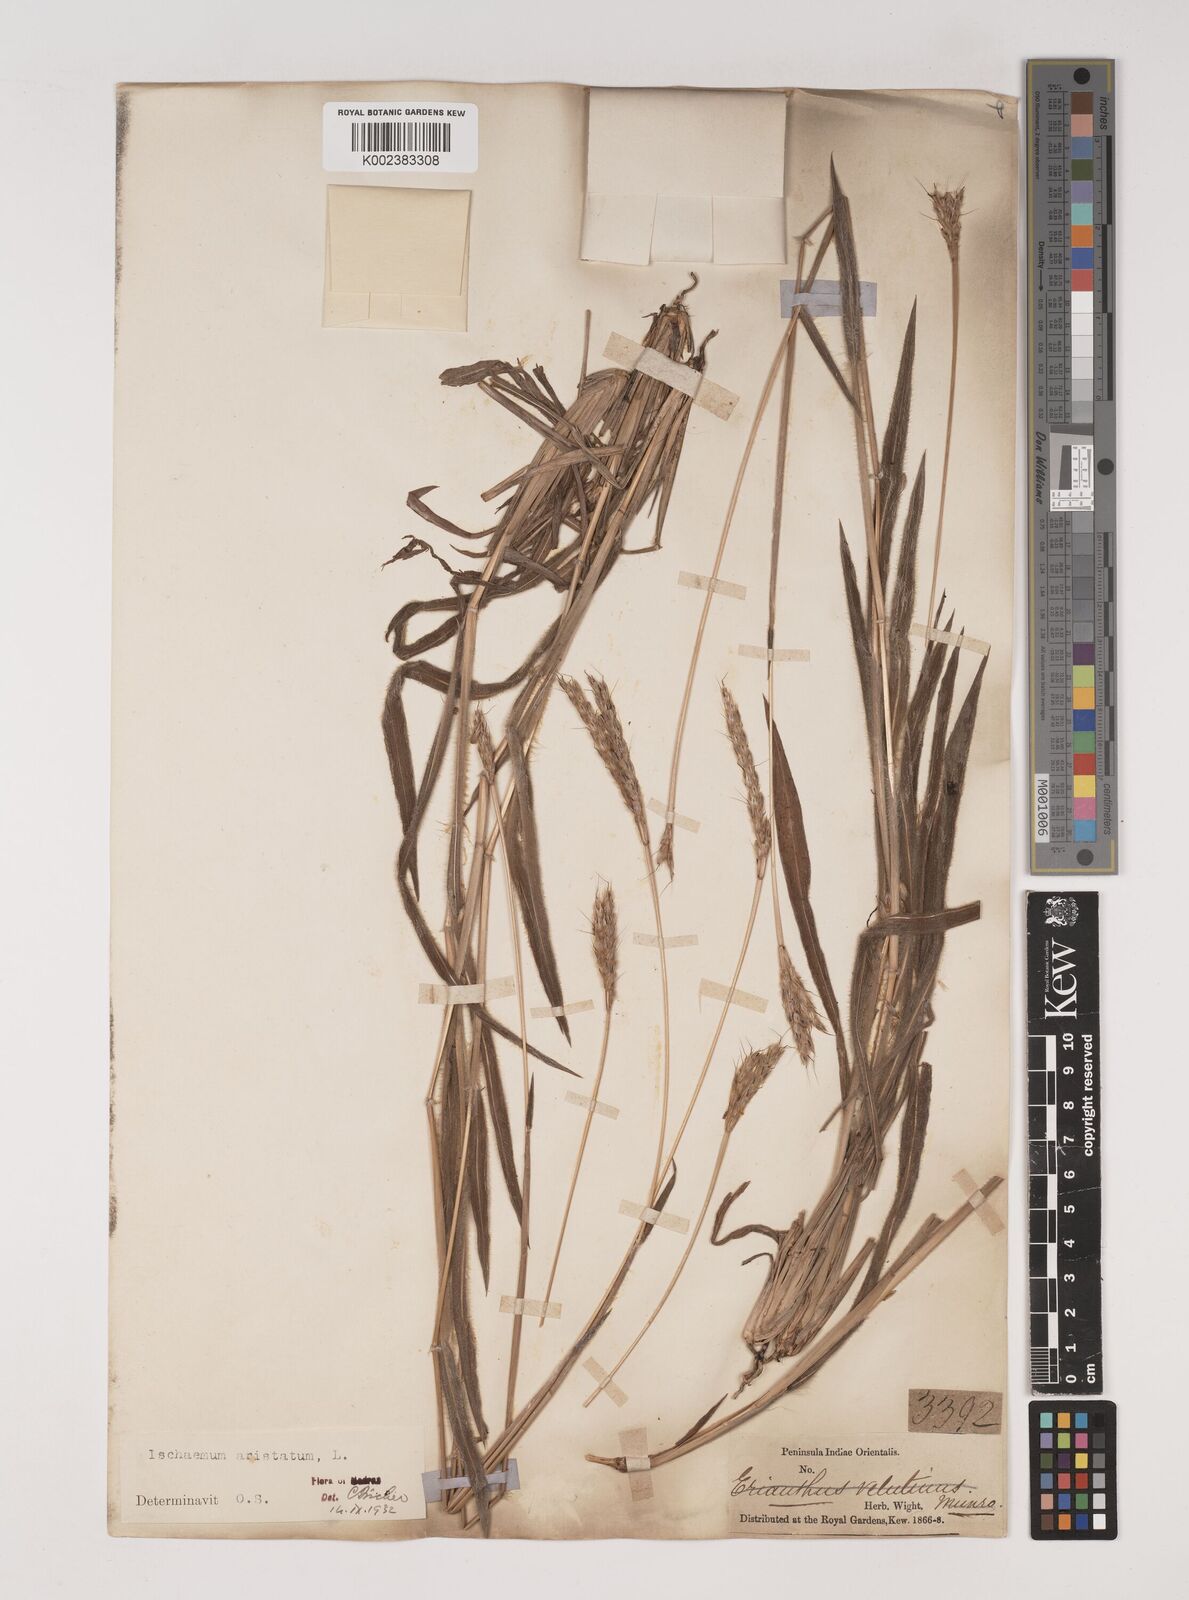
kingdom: Plantae
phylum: Tracheophyta
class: Liliopsida
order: Poales
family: Poaceae
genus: Polytrias
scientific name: Polytrias indica
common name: Indian murainagrass
